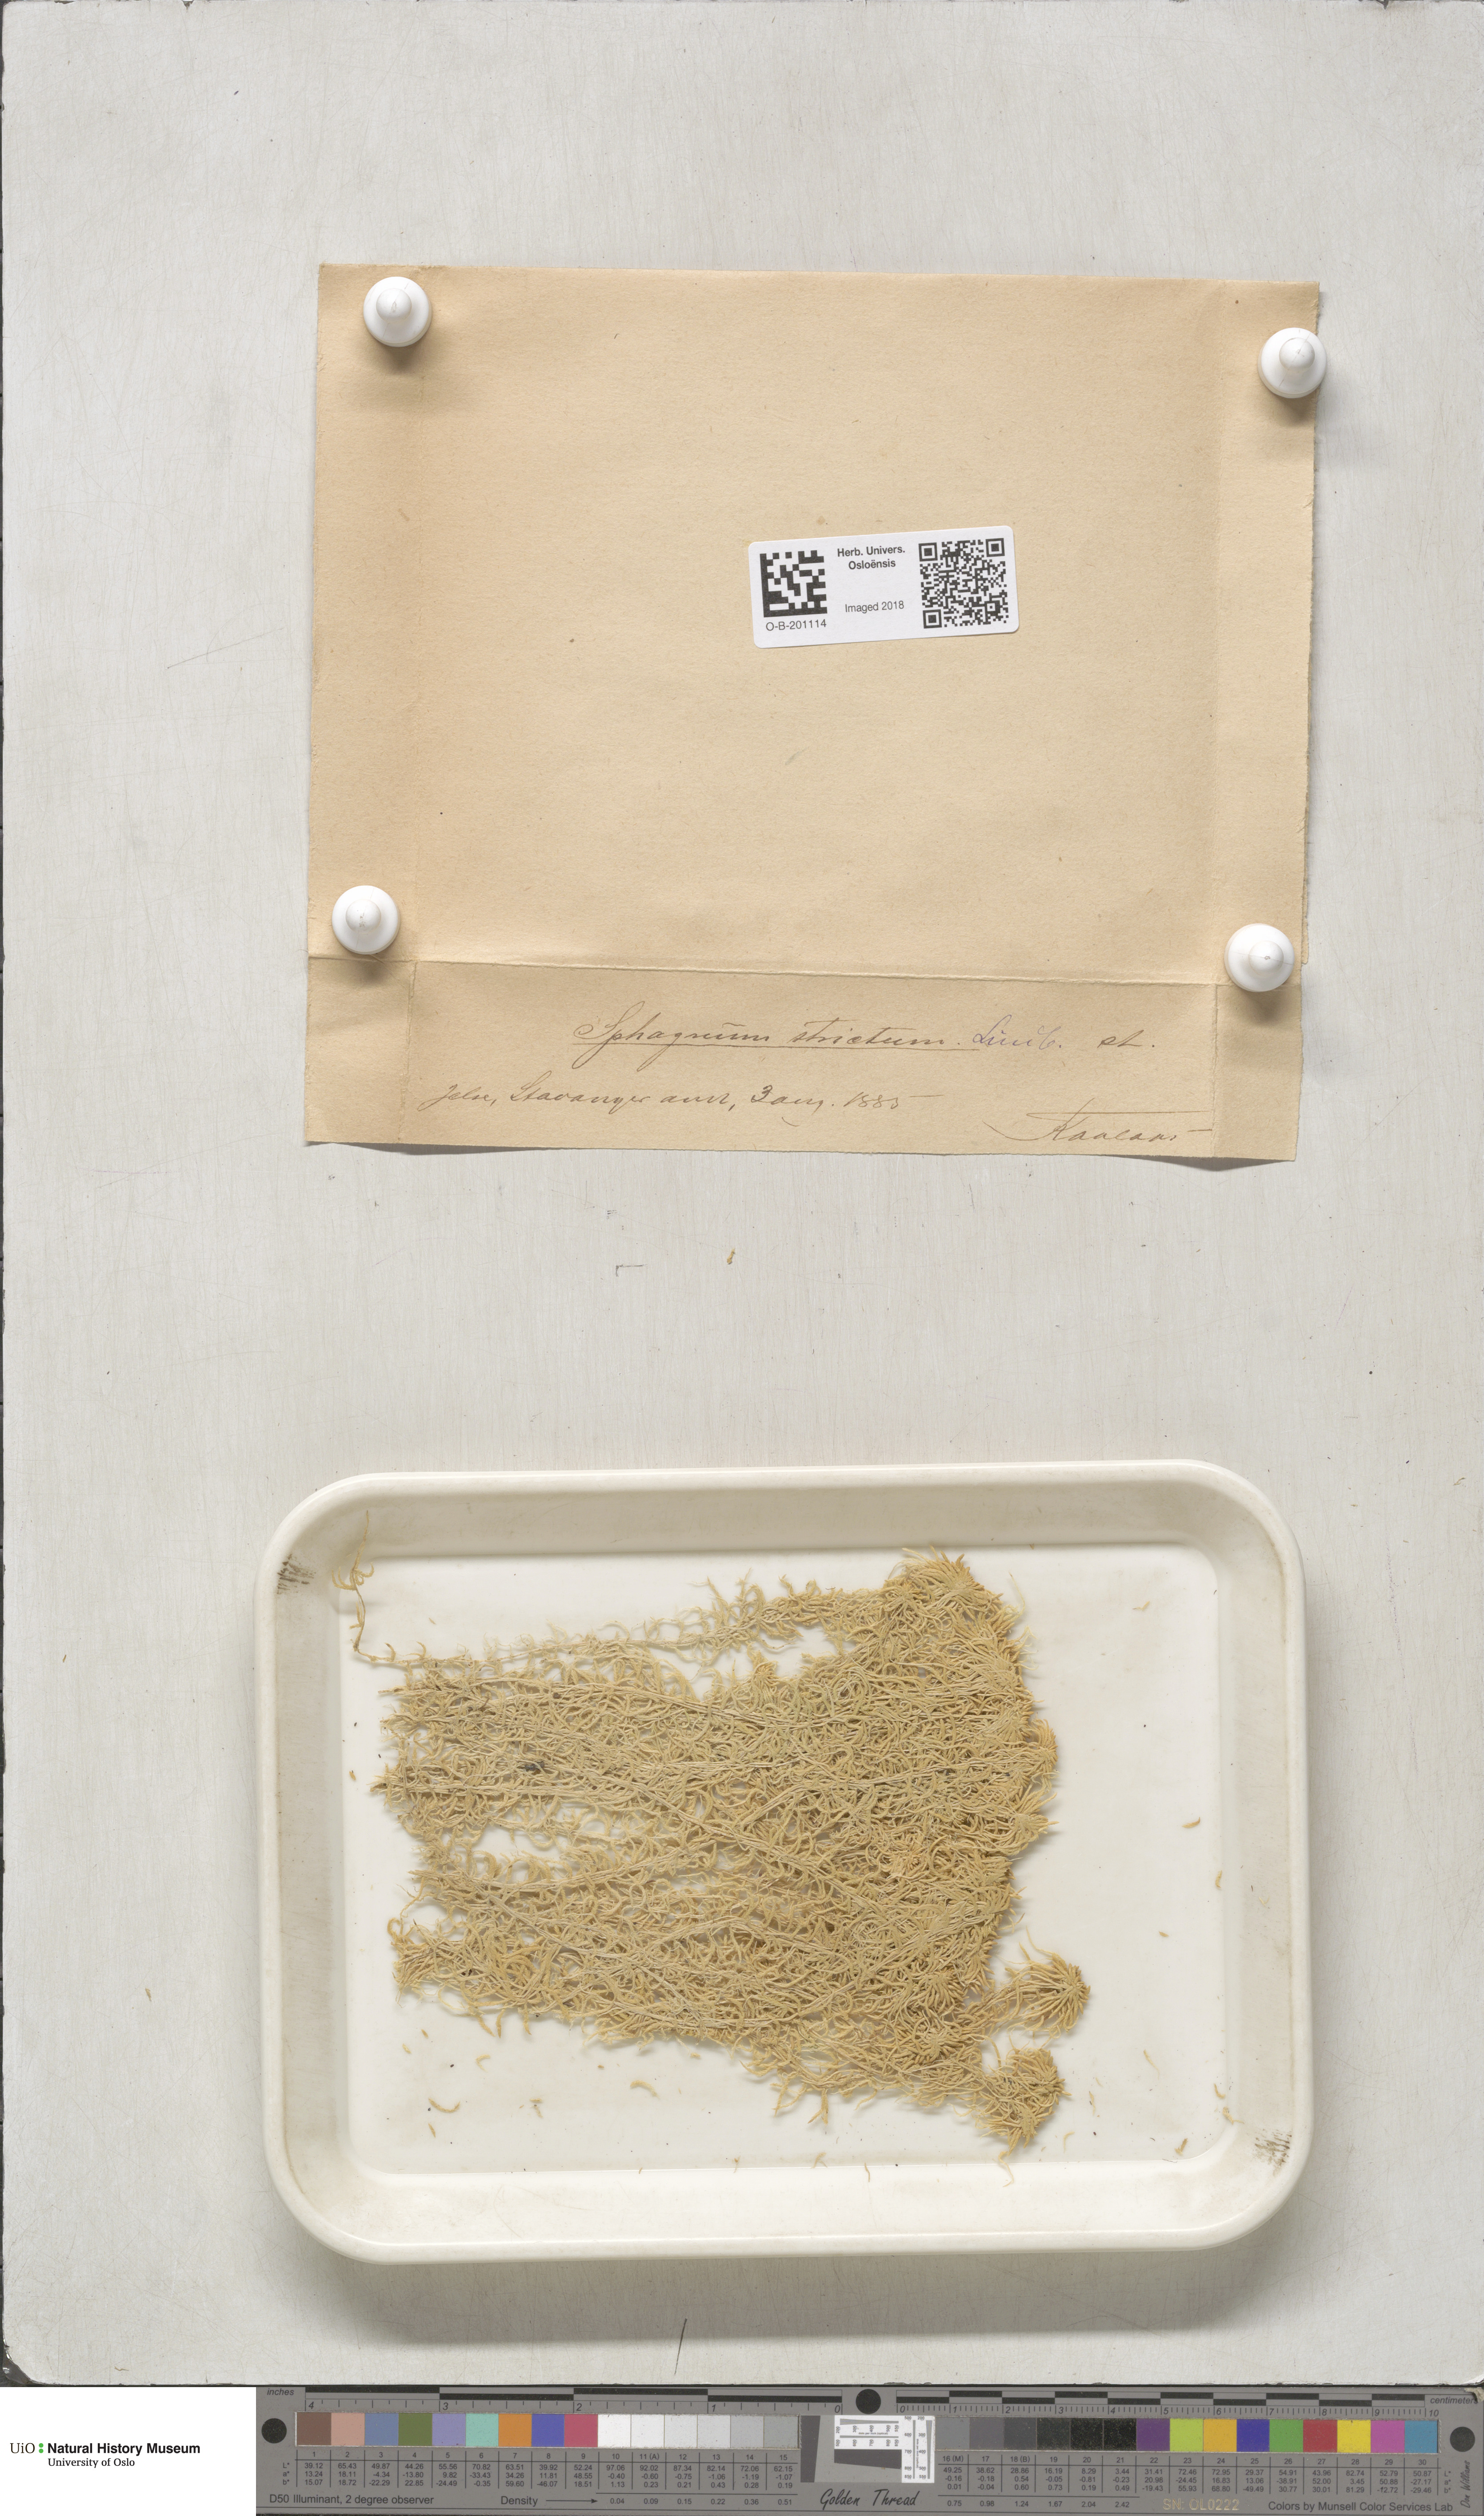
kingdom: Plantae
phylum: Bryophyta
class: Sphagnopsida
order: Sphagnales
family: Sphagnaceae
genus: Sphagnum
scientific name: Sphagnum girgensohnii
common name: Girgensohn's peat moss
